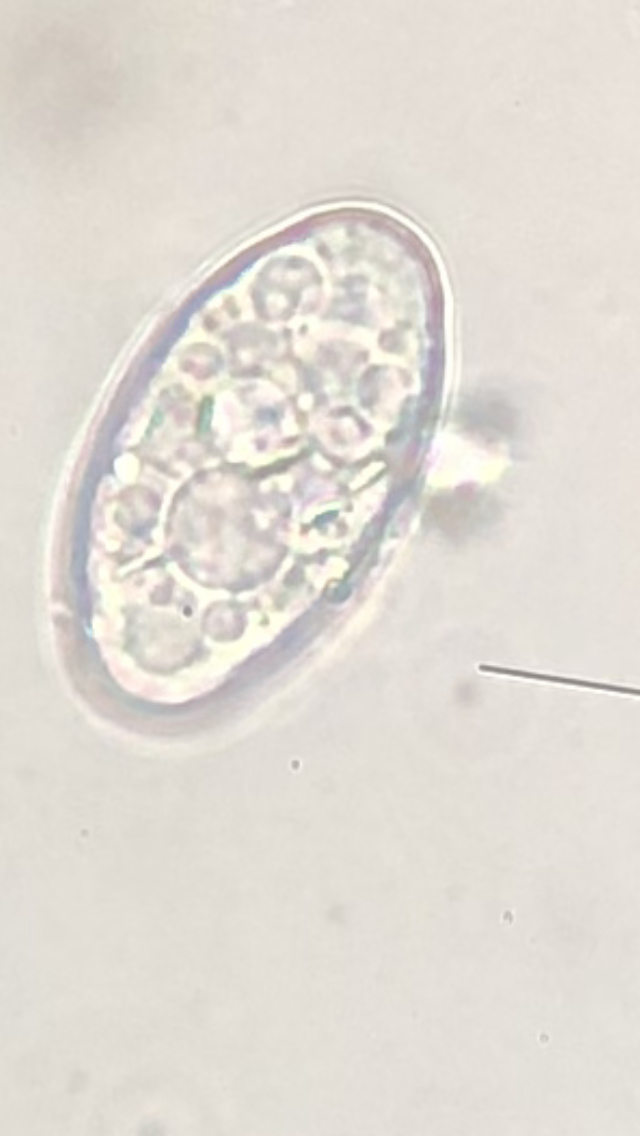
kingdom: Fungi
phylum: Ascomycota
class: Leotiomycetes
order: Helotiales
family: Erysiphaceae
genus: Podosphaera
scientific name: Podosphaera aphanis
